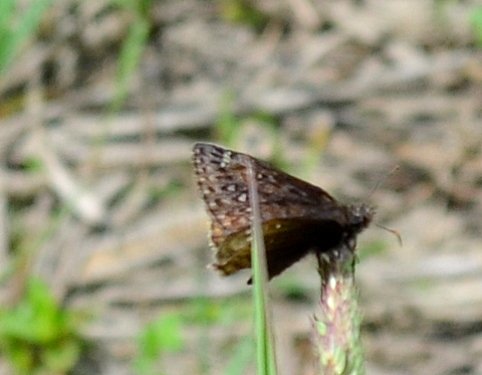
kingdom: Animalia
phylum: Arthropoda
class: Insecta
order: Lepidoptera
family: Hesperiidae
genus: Gesta
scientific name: Gesta
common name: Juvenal's Duskywing
